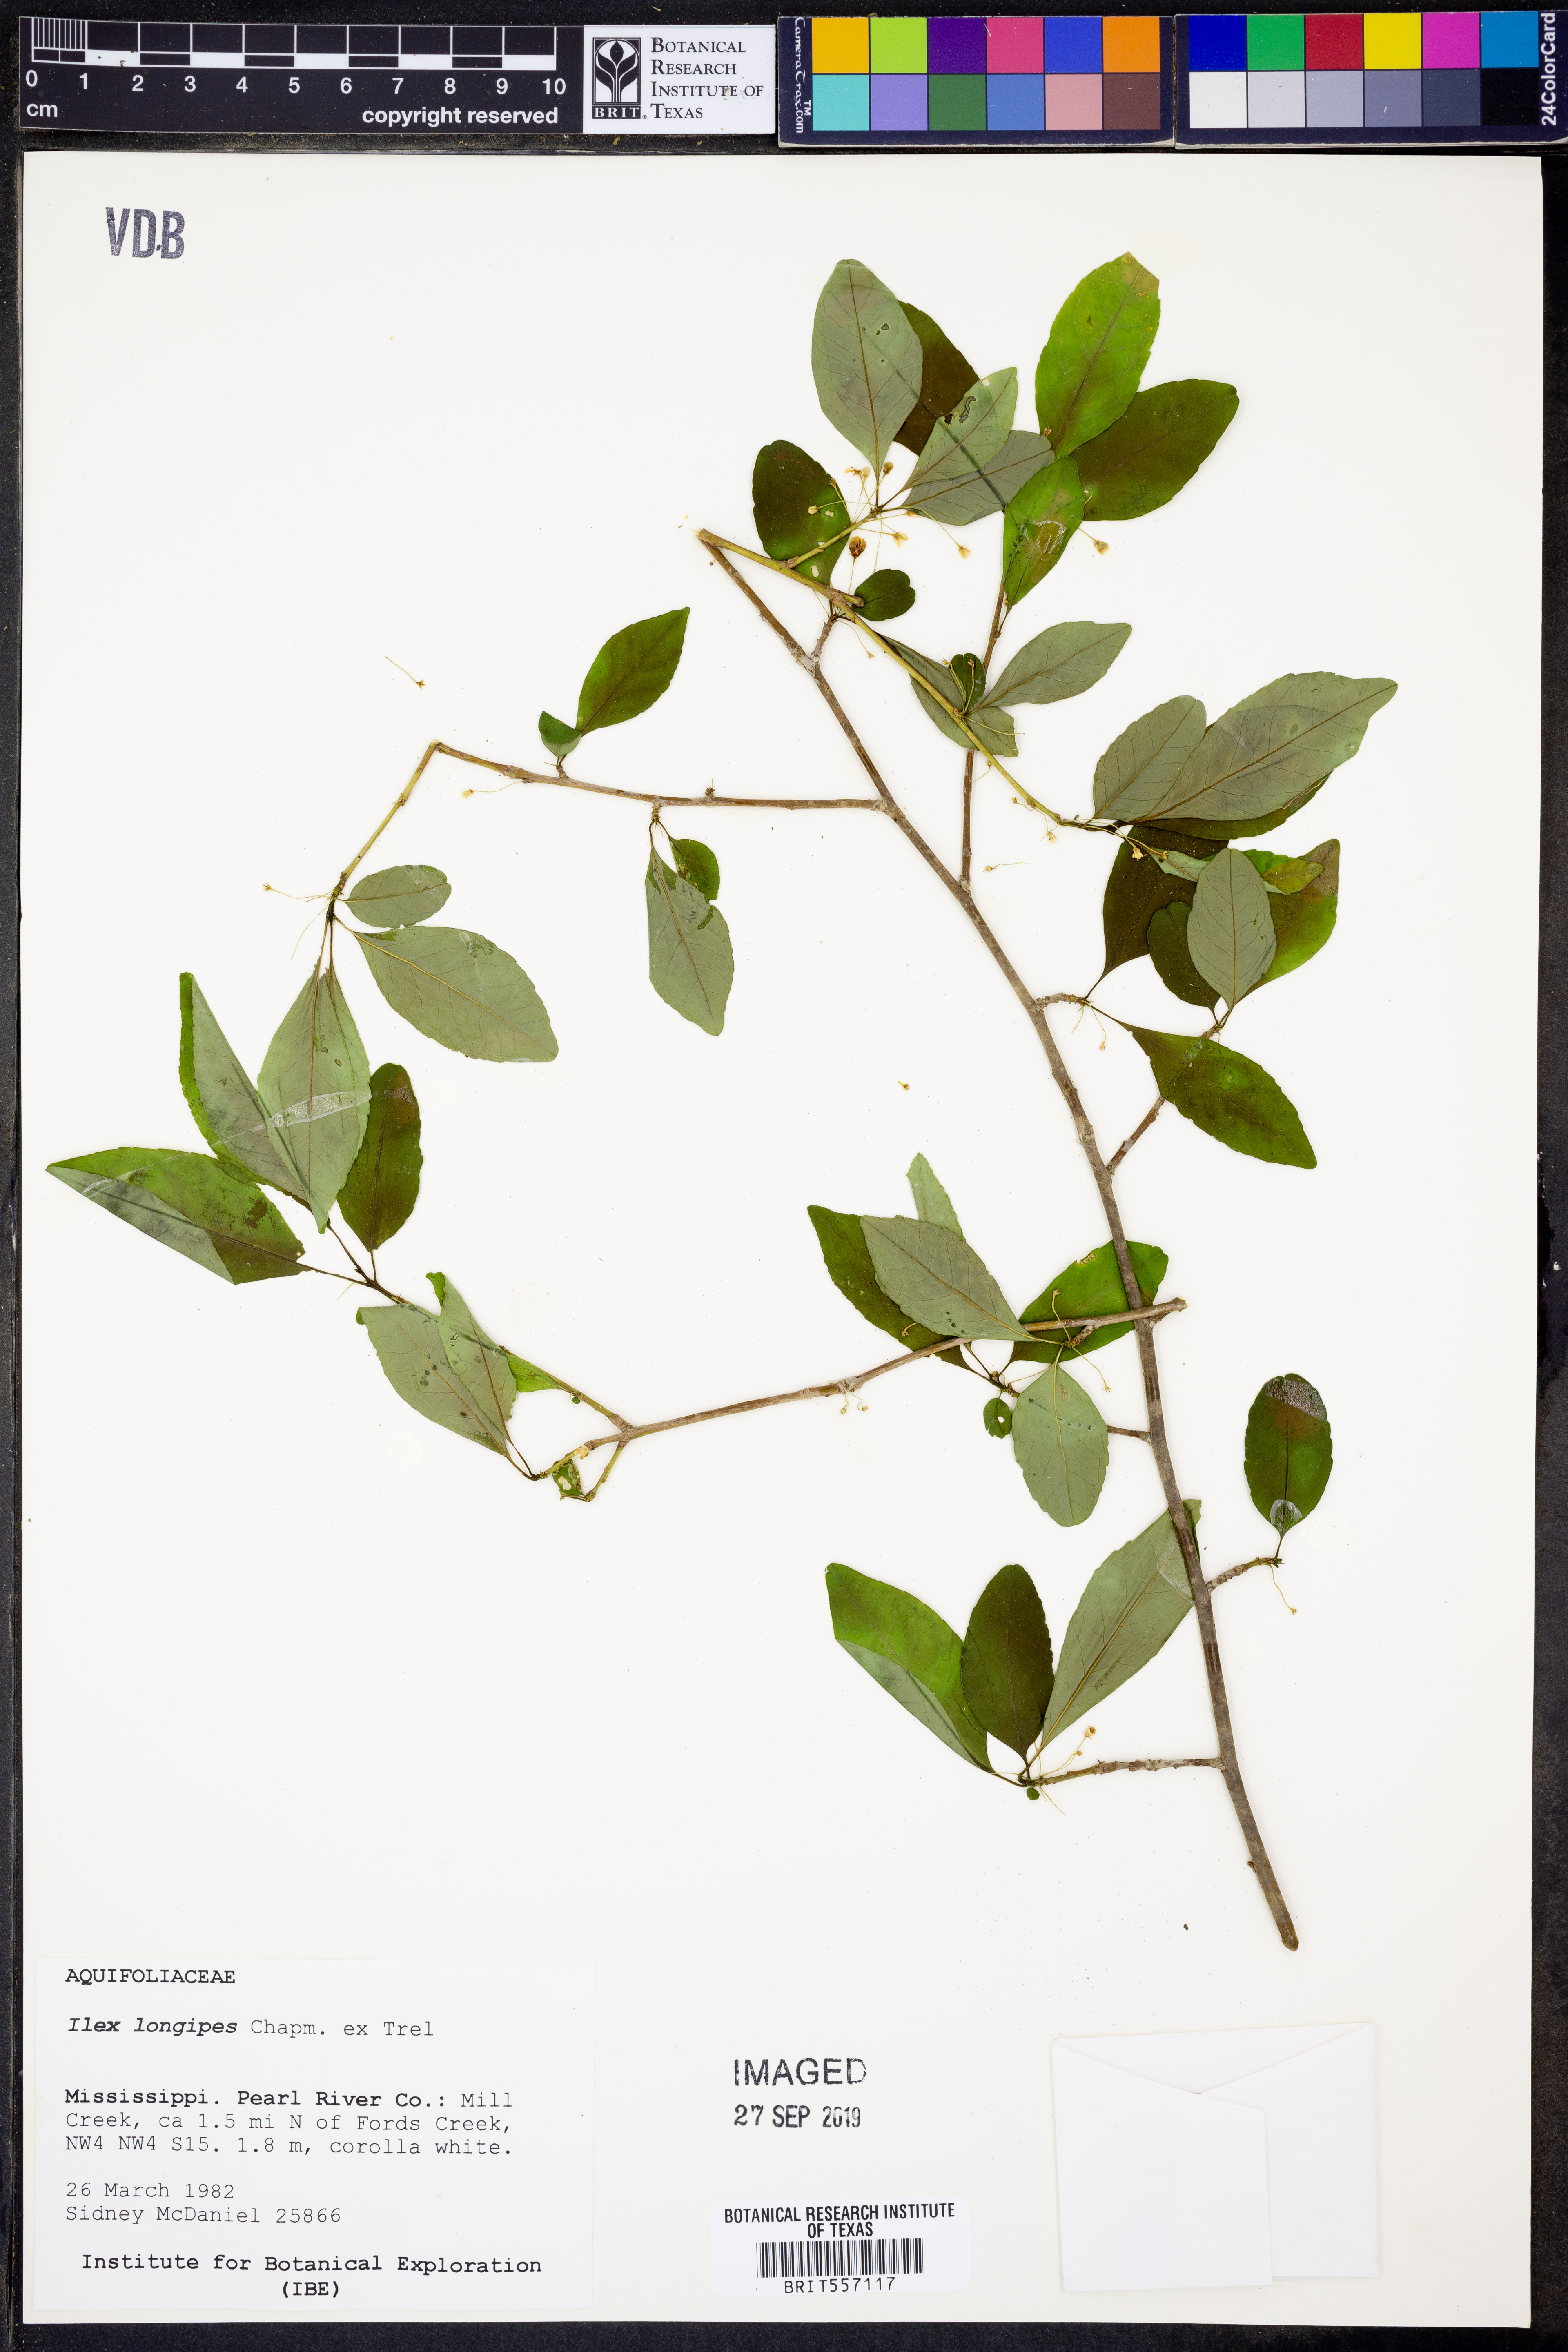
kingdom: Plantae
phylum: Tracheophyta
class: Magnoliopsida
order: Aquifoliales
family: Aquifoliaceae
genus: Ilex
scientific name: Ilex longipes
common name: Georgia holly
